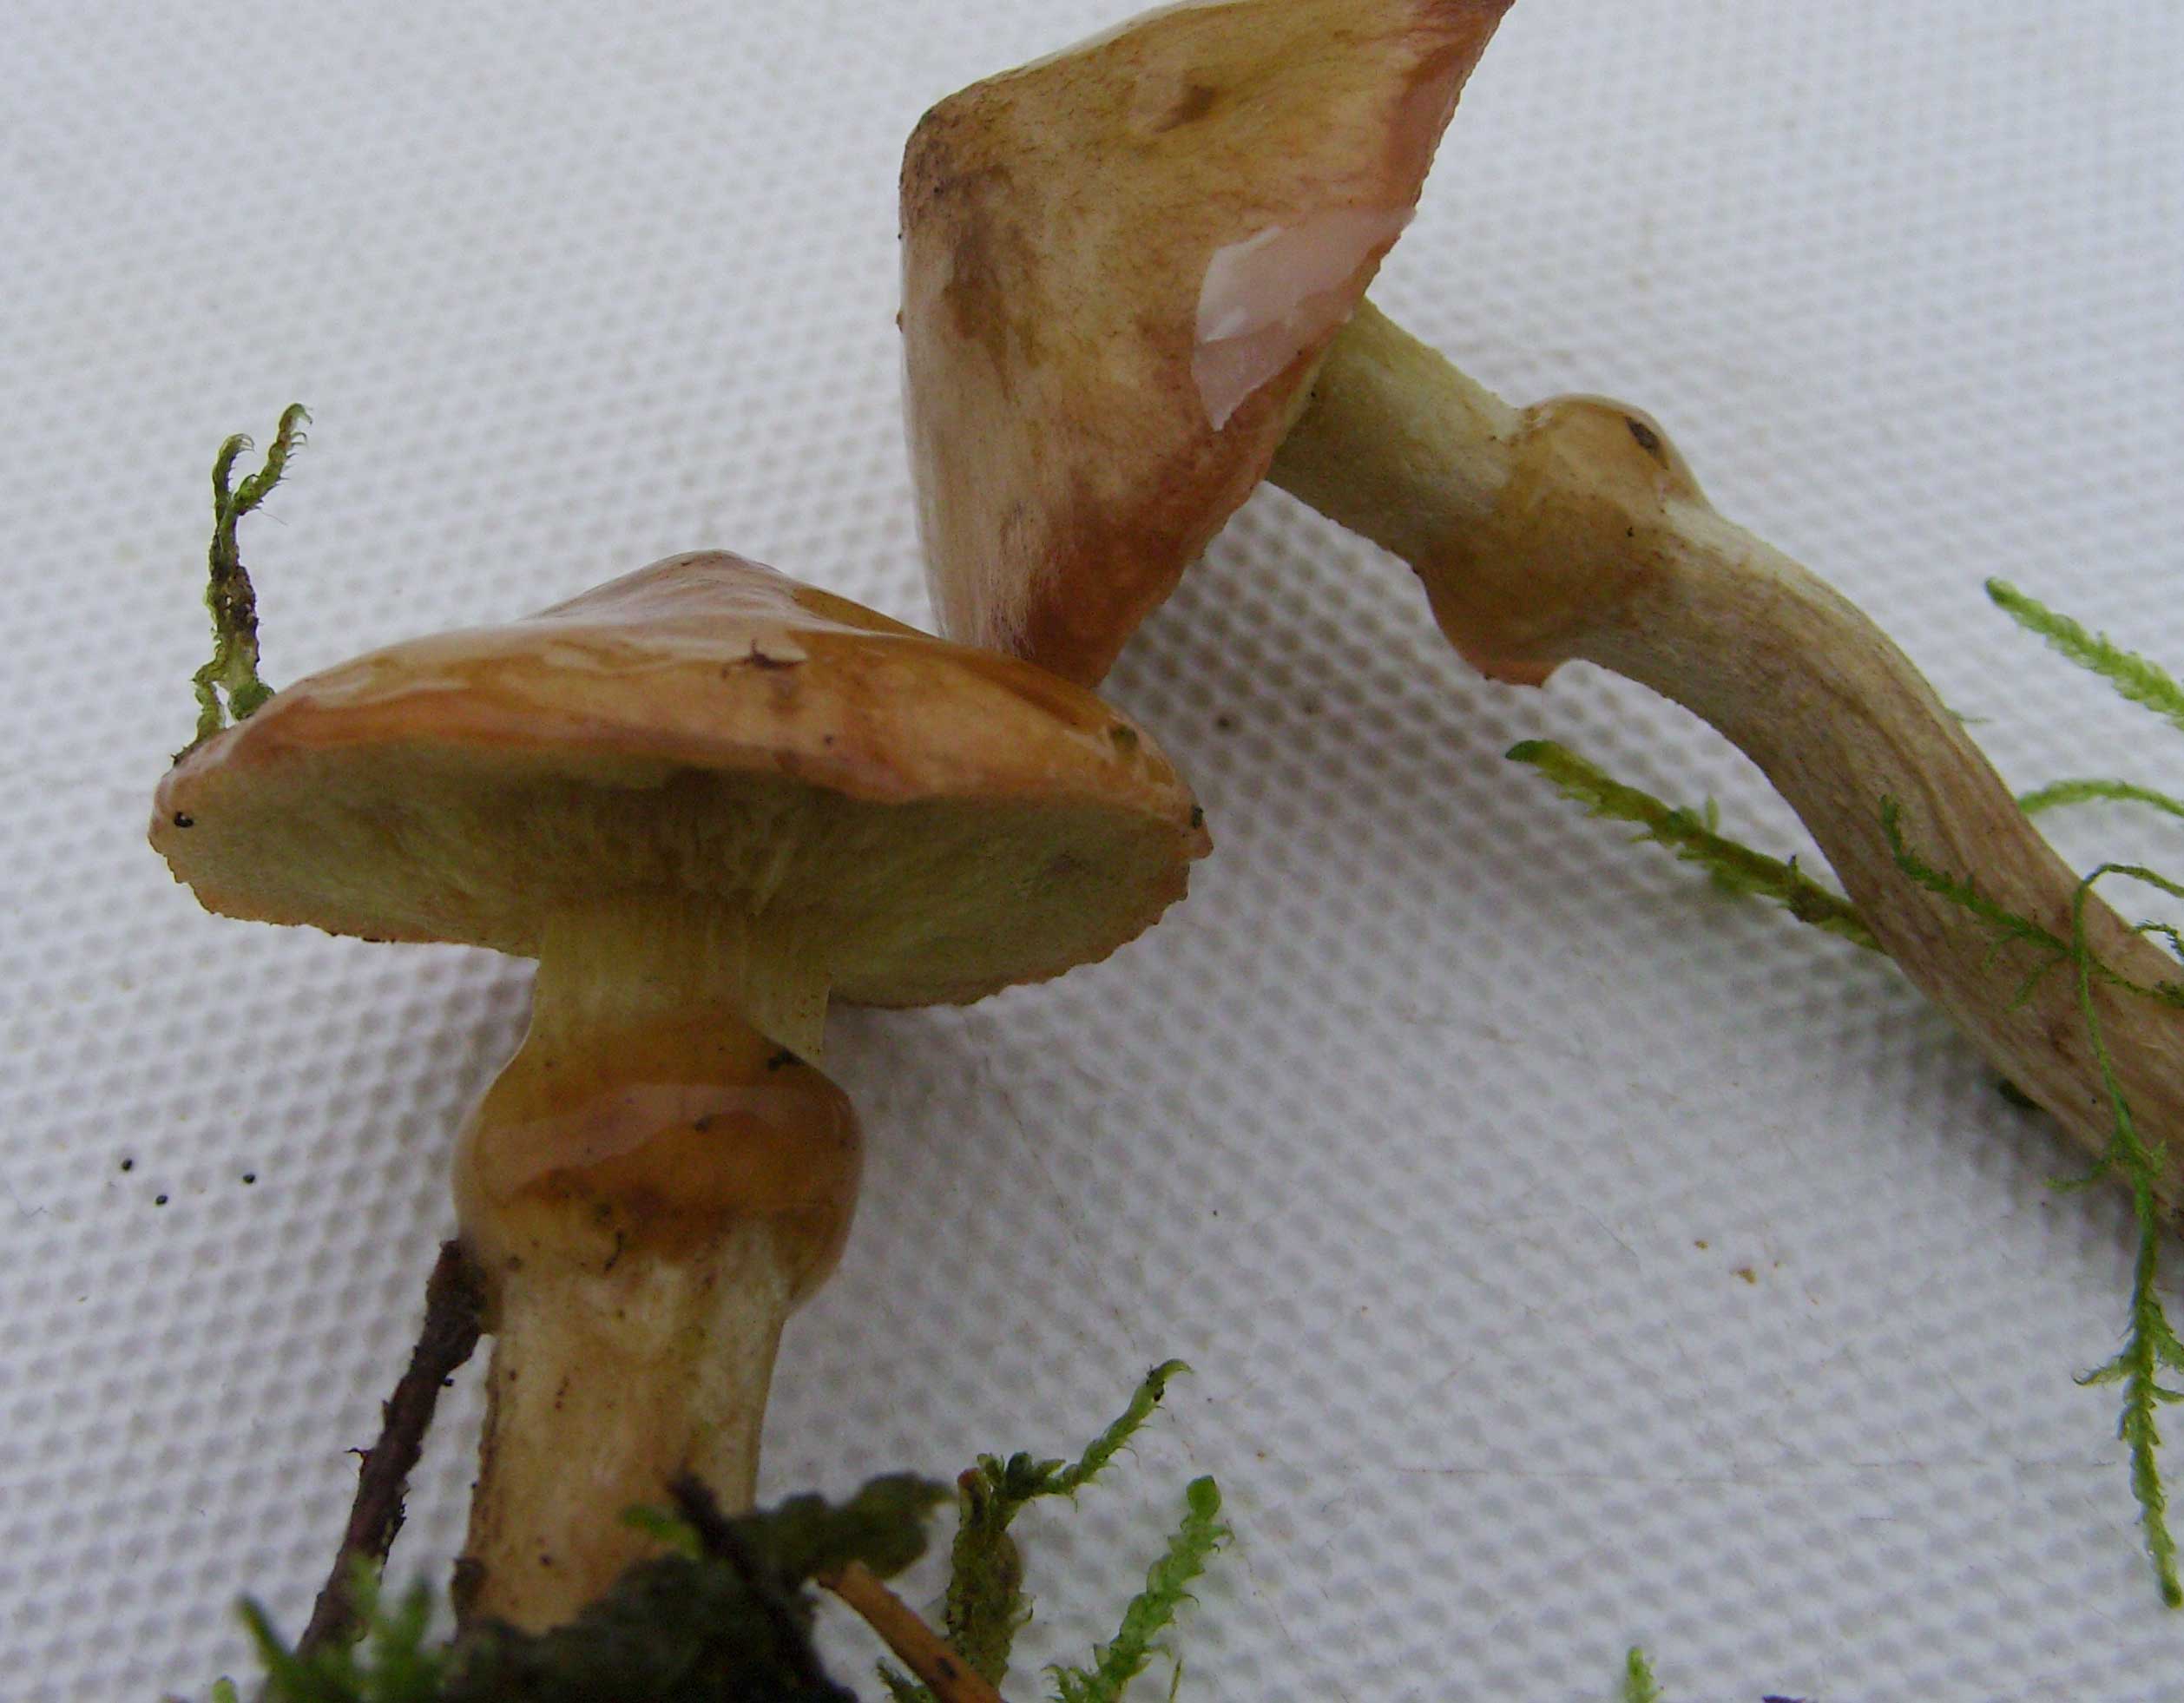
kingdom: Fungi
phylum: Basidiomycota
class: Agaricomycetes
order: Boletales
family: Suillaceae
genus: Suillus
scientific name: Suillus flavidus
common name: mose-slimrørhat
